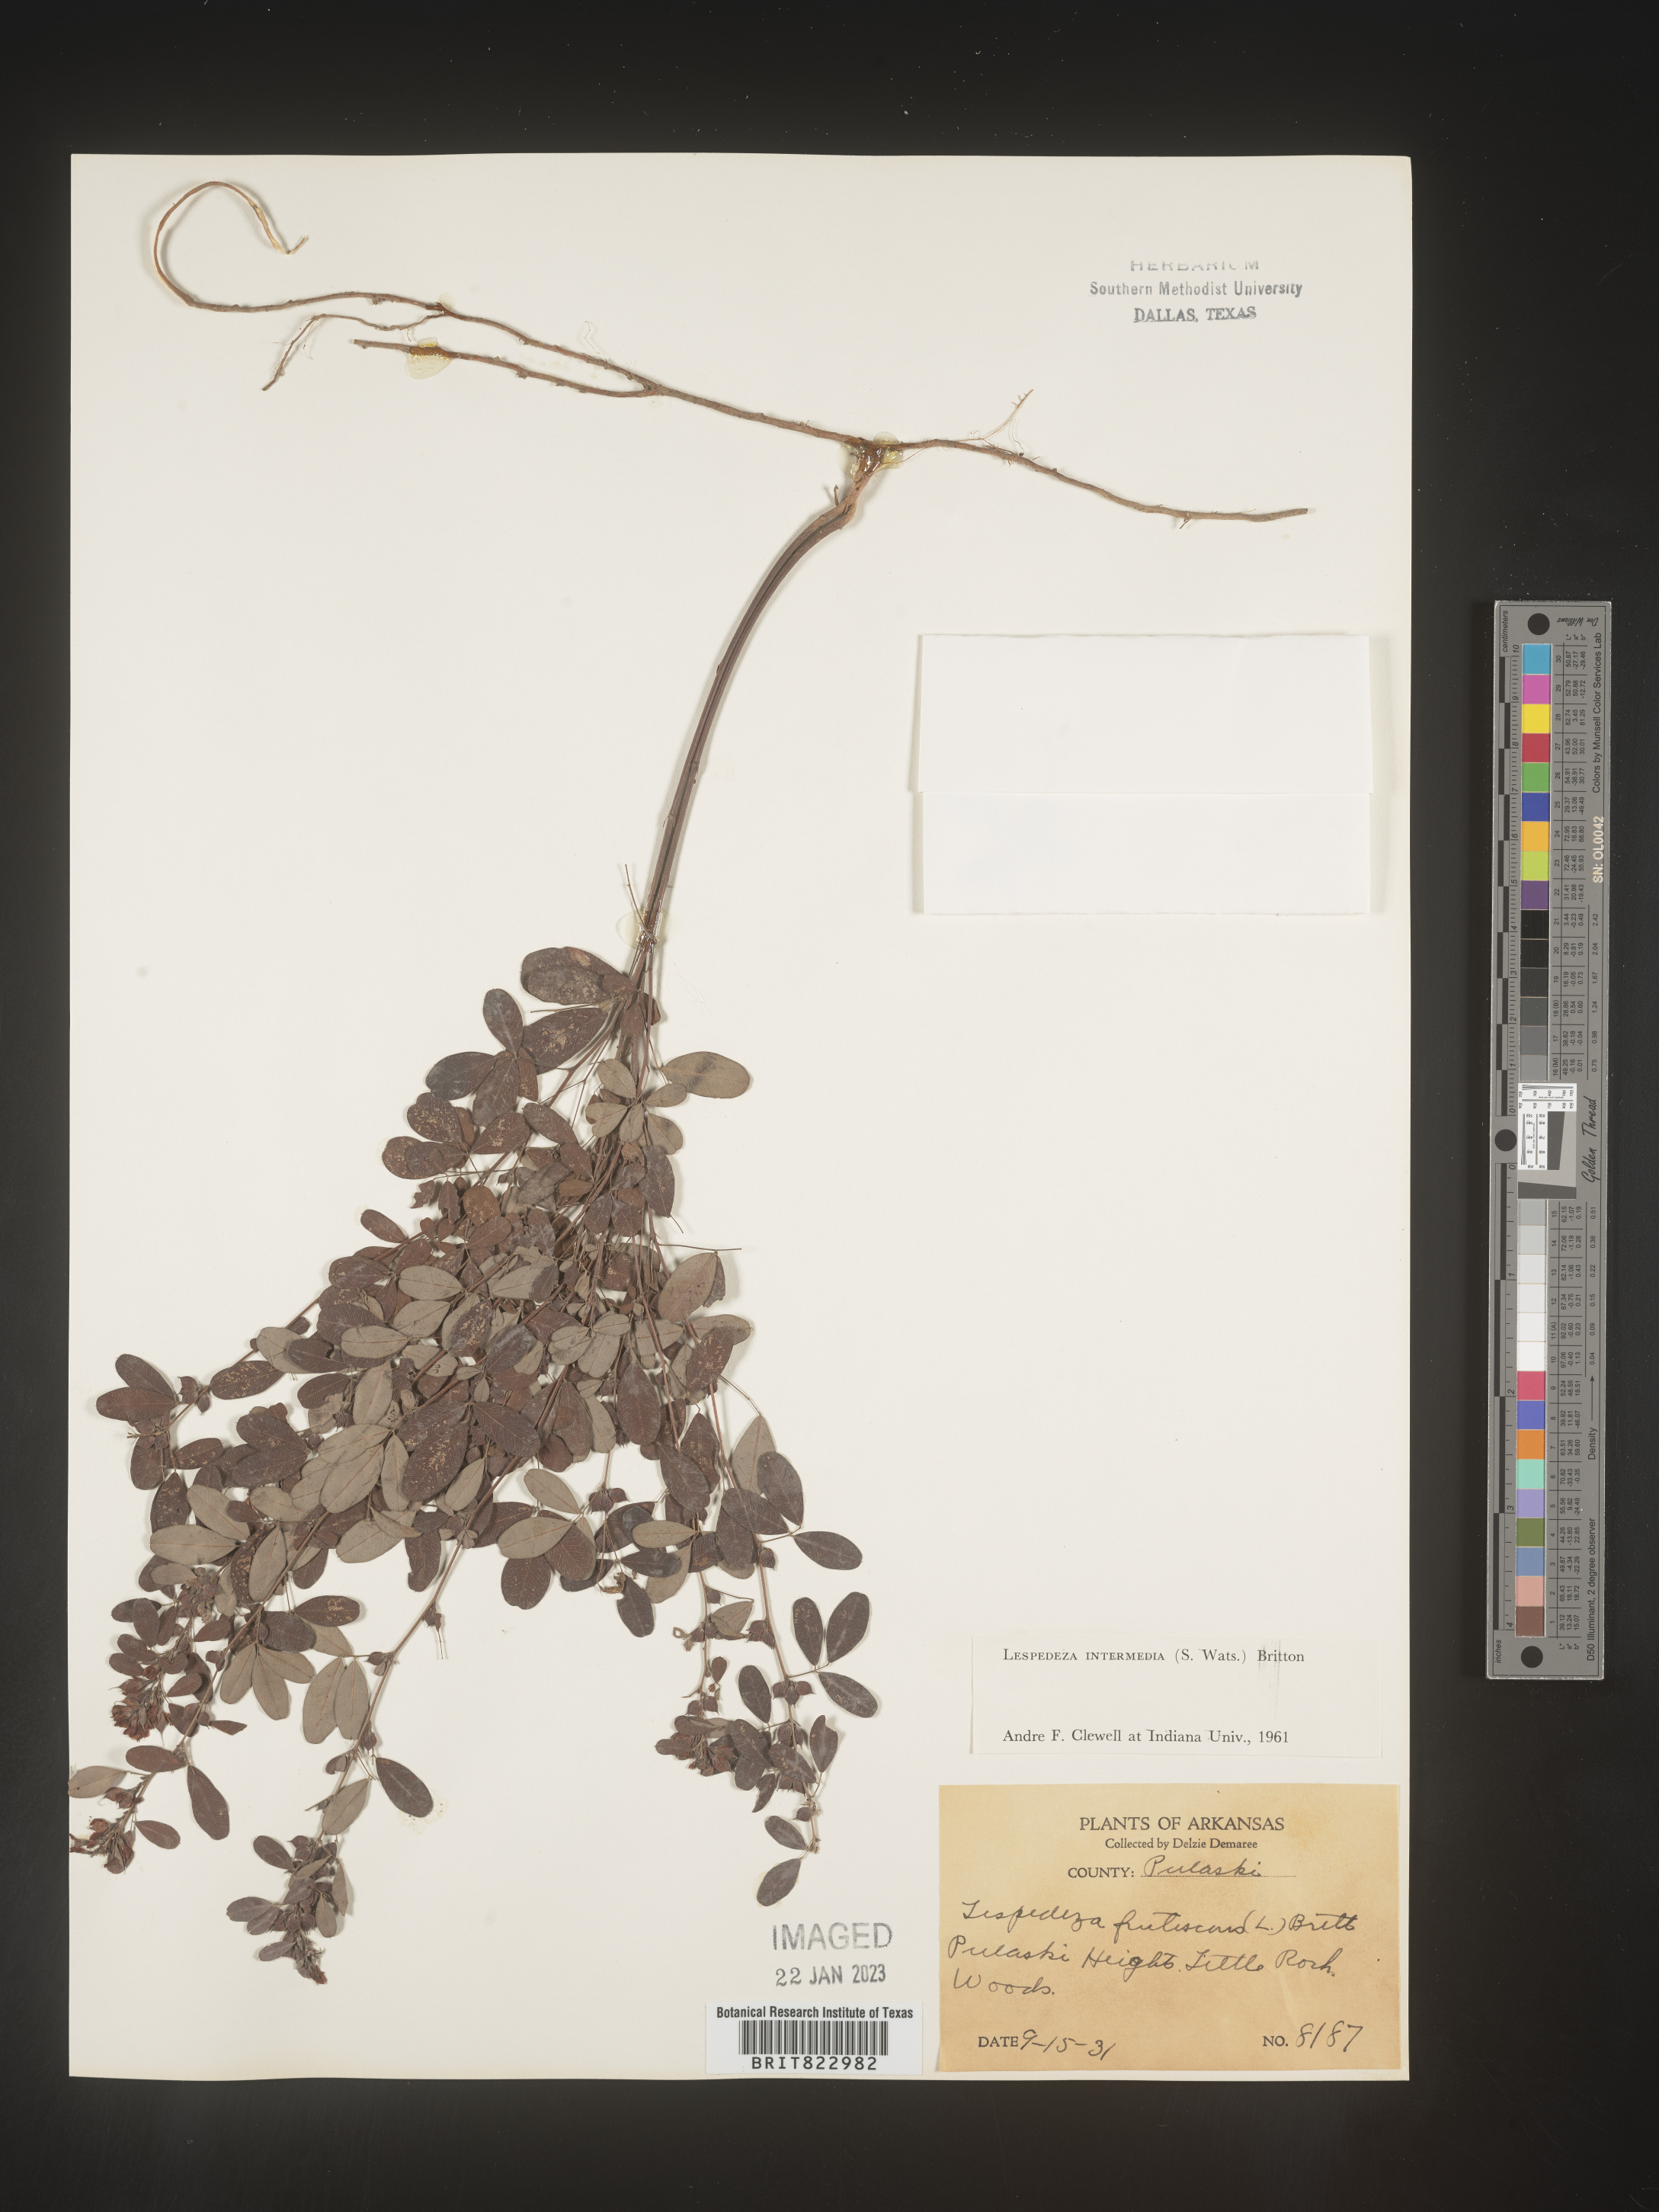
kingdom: Plantae
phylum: Tracheophyta
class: Magnoliopsida
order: Fabales
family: Fabaceae
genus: Lespedeza
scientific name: Lespedeza
